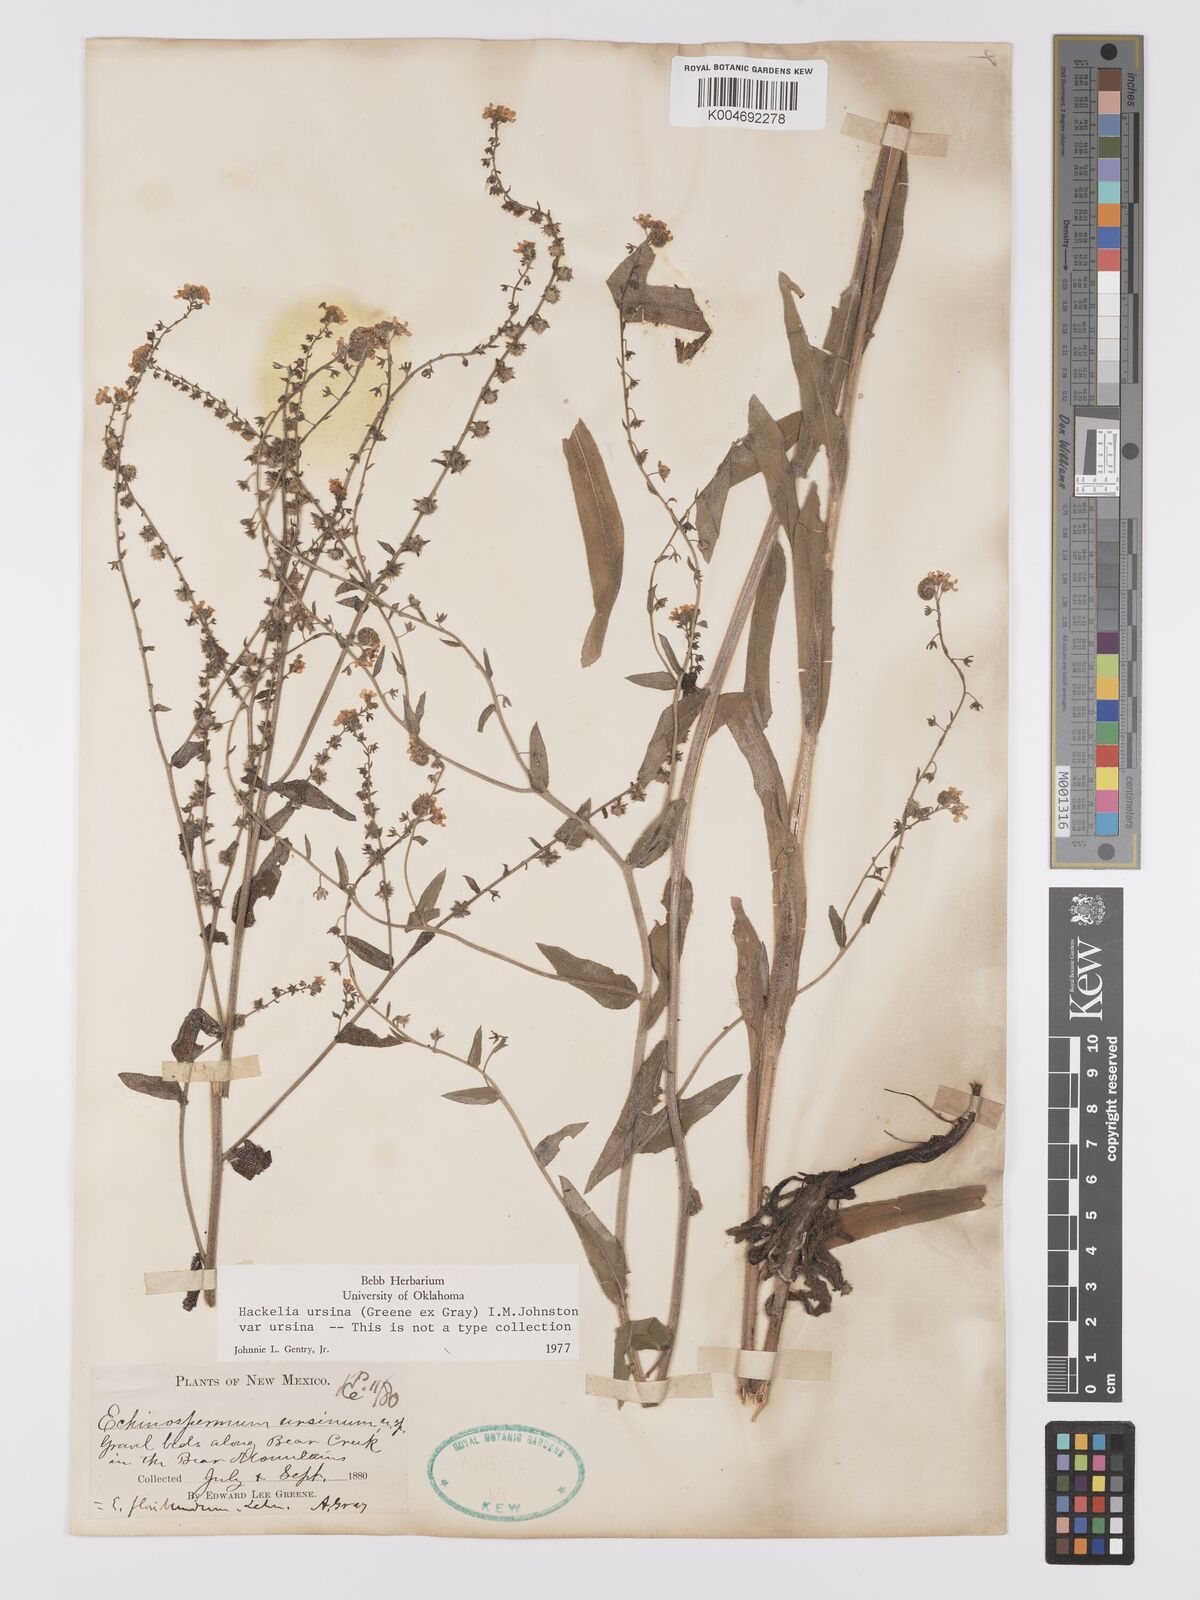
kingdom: Plantae
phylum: Tracheophyta
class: Magnoliopsida
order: Boraginales
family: Boraginaceae
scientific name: Boraginaceae
